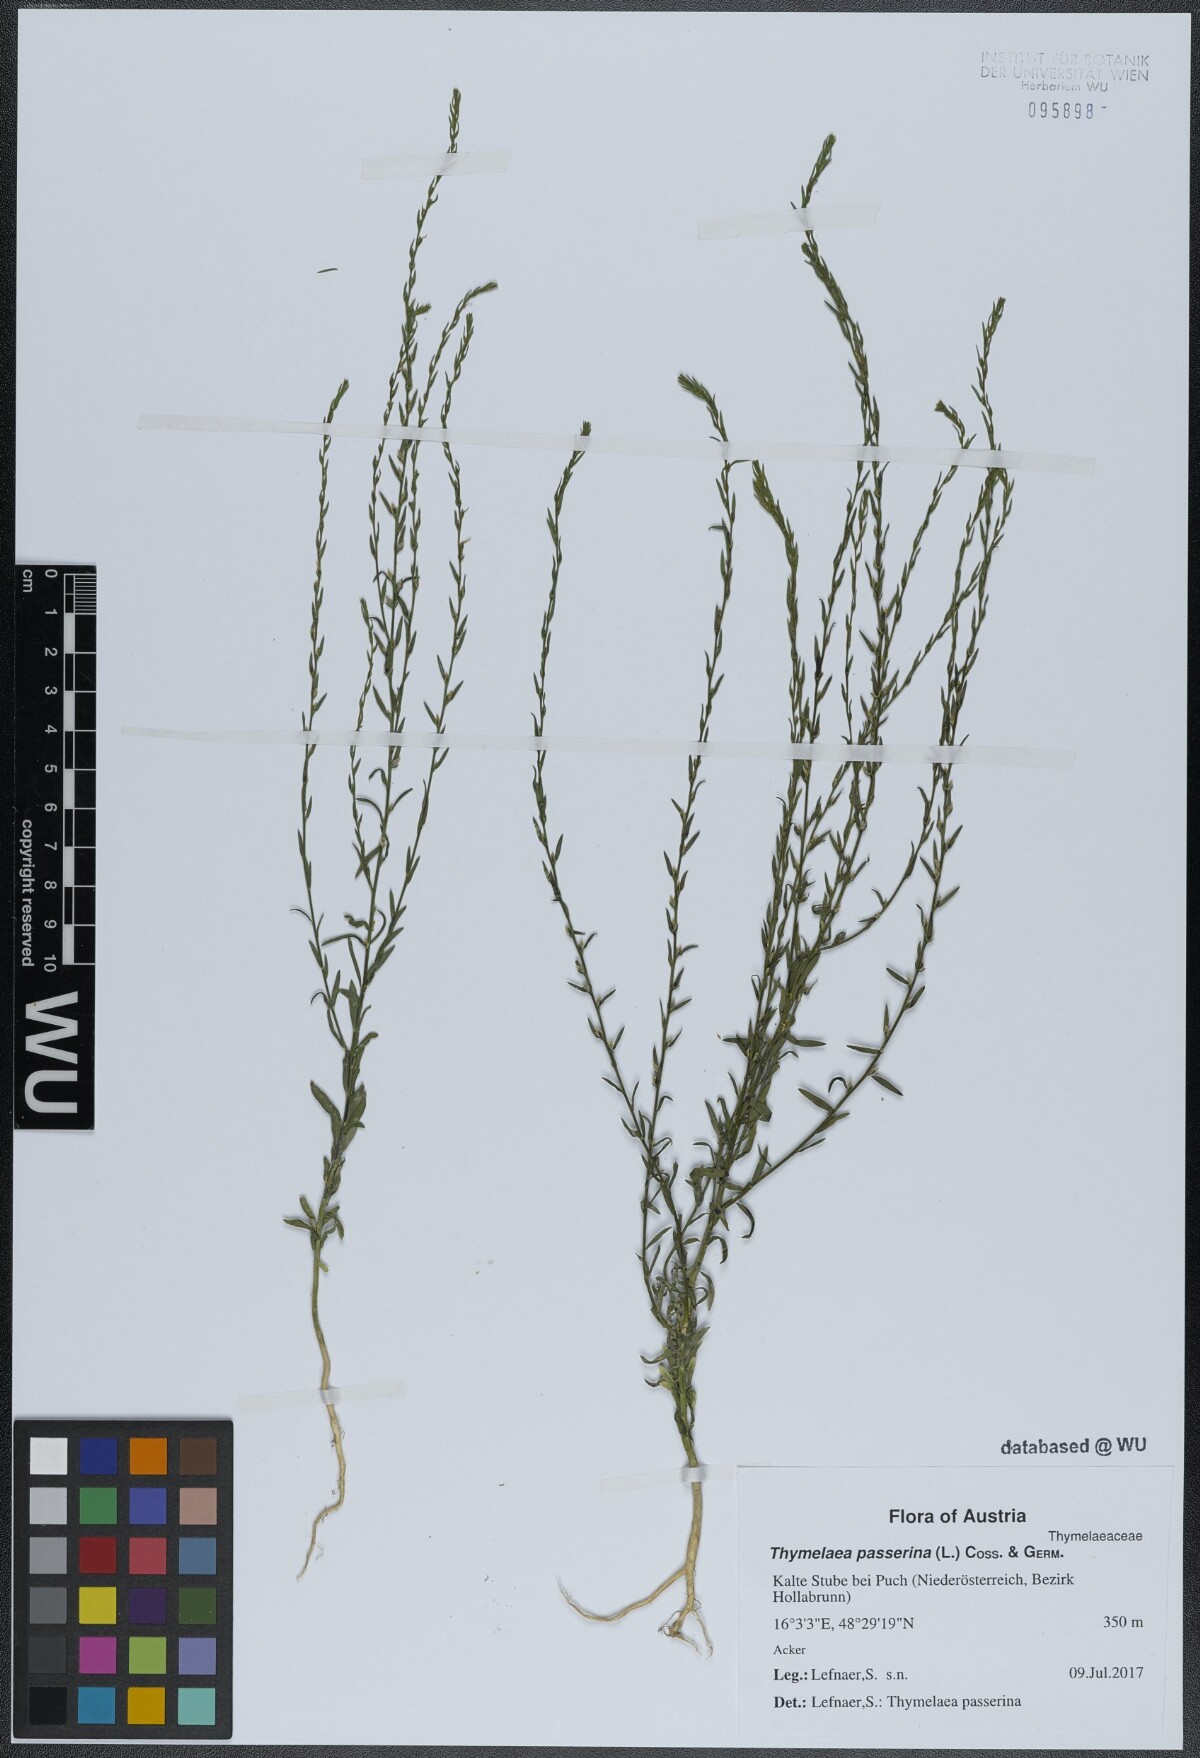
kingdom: Plantae
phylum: Tracheophyta
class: Magnoliopsida
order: Malvales
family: Thymelaeaceae
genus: Thymelaea
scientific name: Thymelaea passerina
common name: Annual thymelaea
